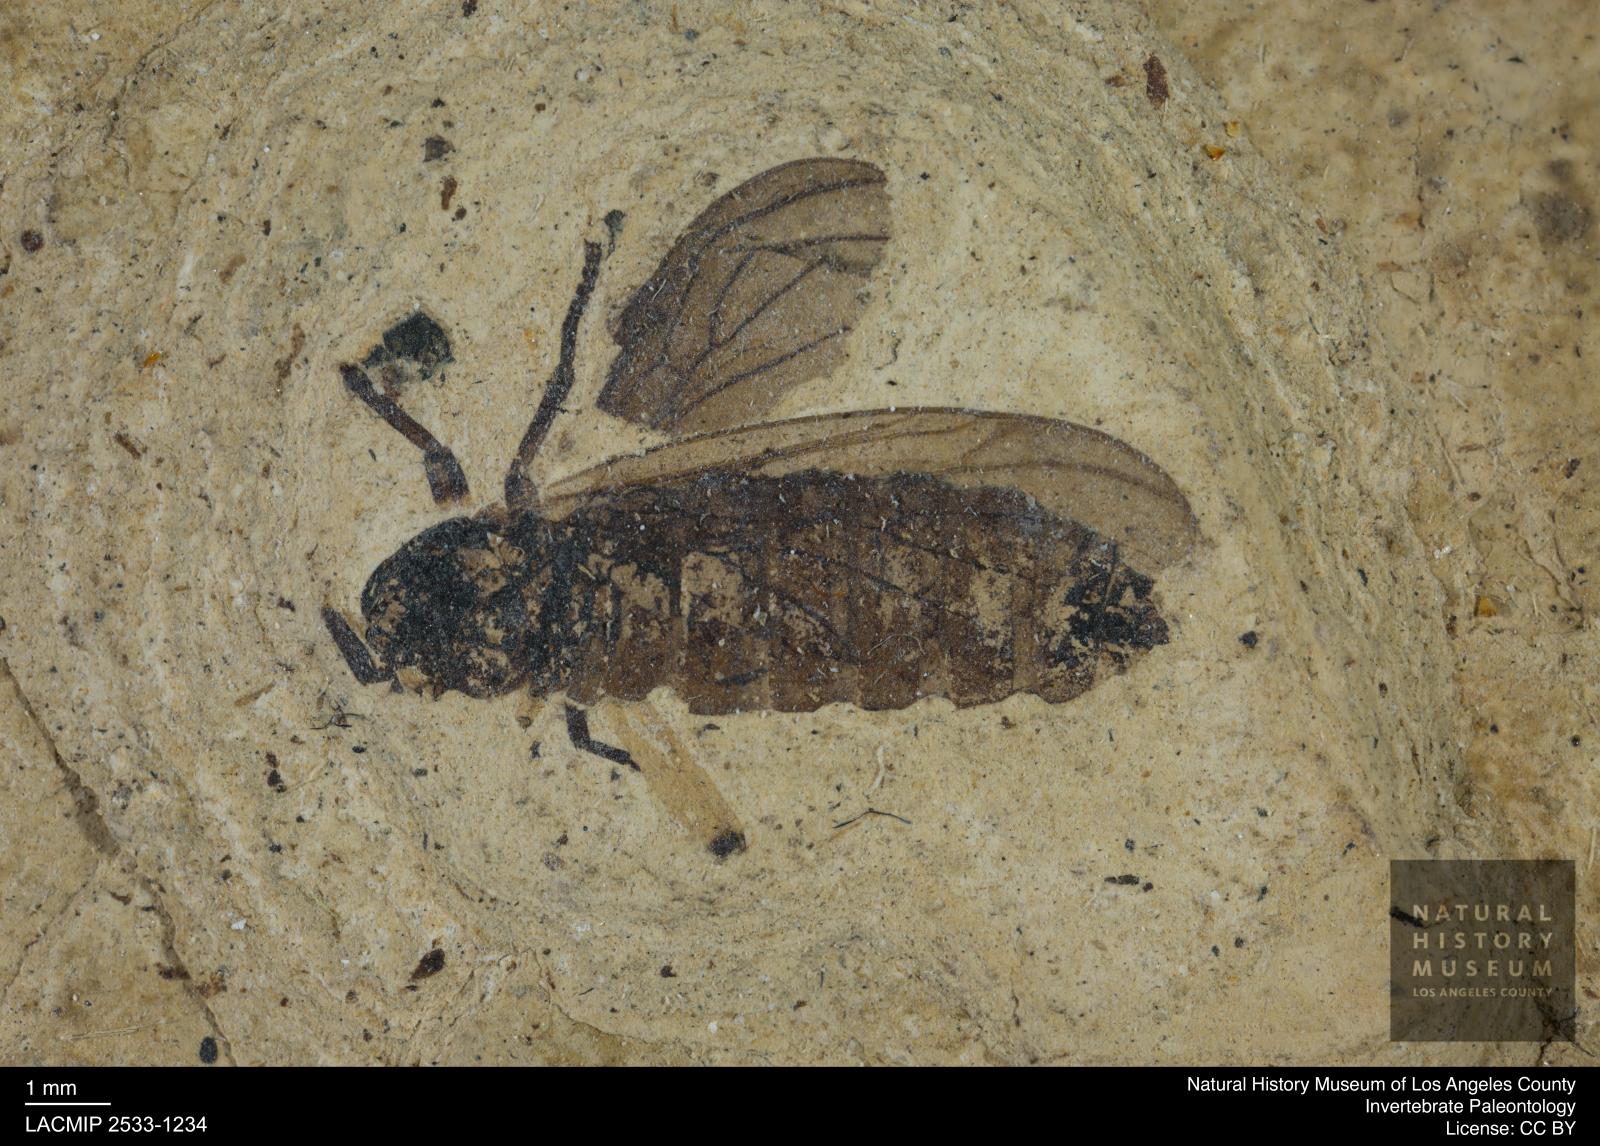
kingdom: Animalia
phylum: Arthropoda
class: Insecta
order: Diptera
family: Bibionidae
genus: Plecia
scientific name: Plecia luctuosa
